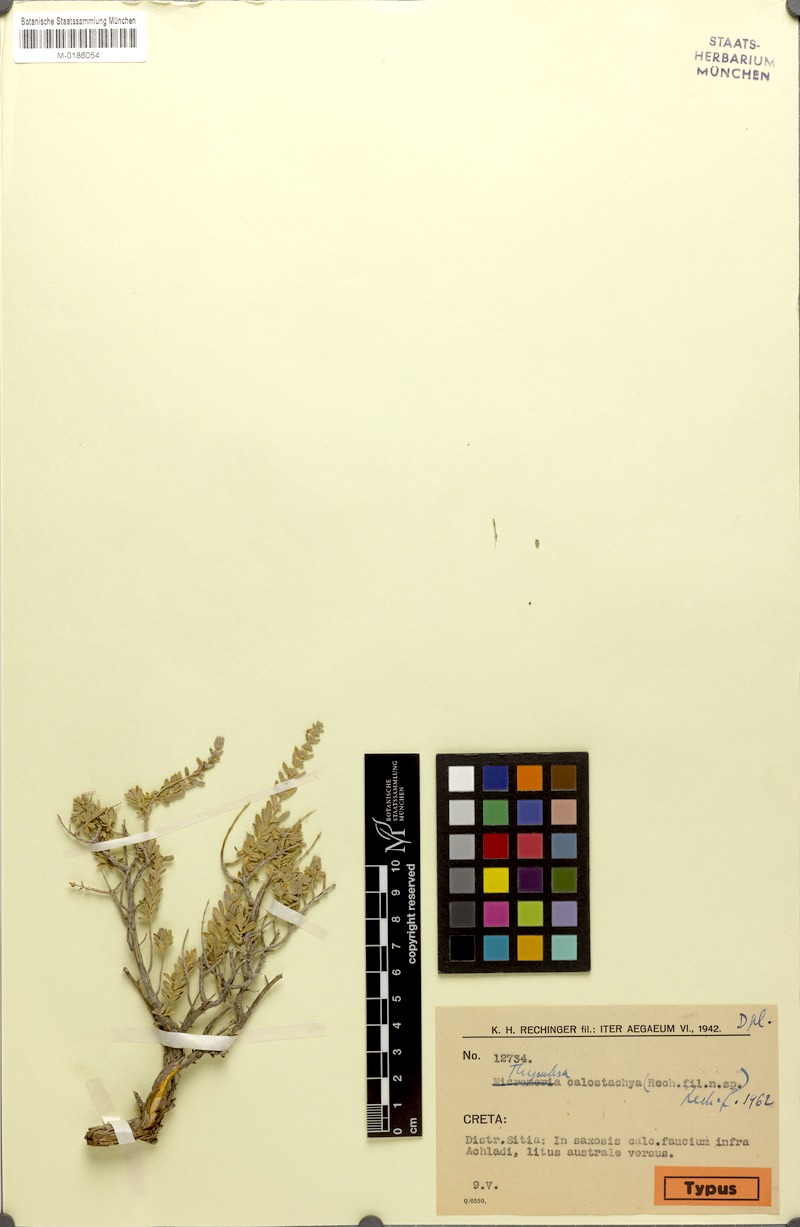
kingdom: Plantae
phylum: Tracheophyta
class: Magnoliopsida
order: Lamiales
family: Lamiaceae
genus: Thymbra
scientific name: Thymbra calostachya
